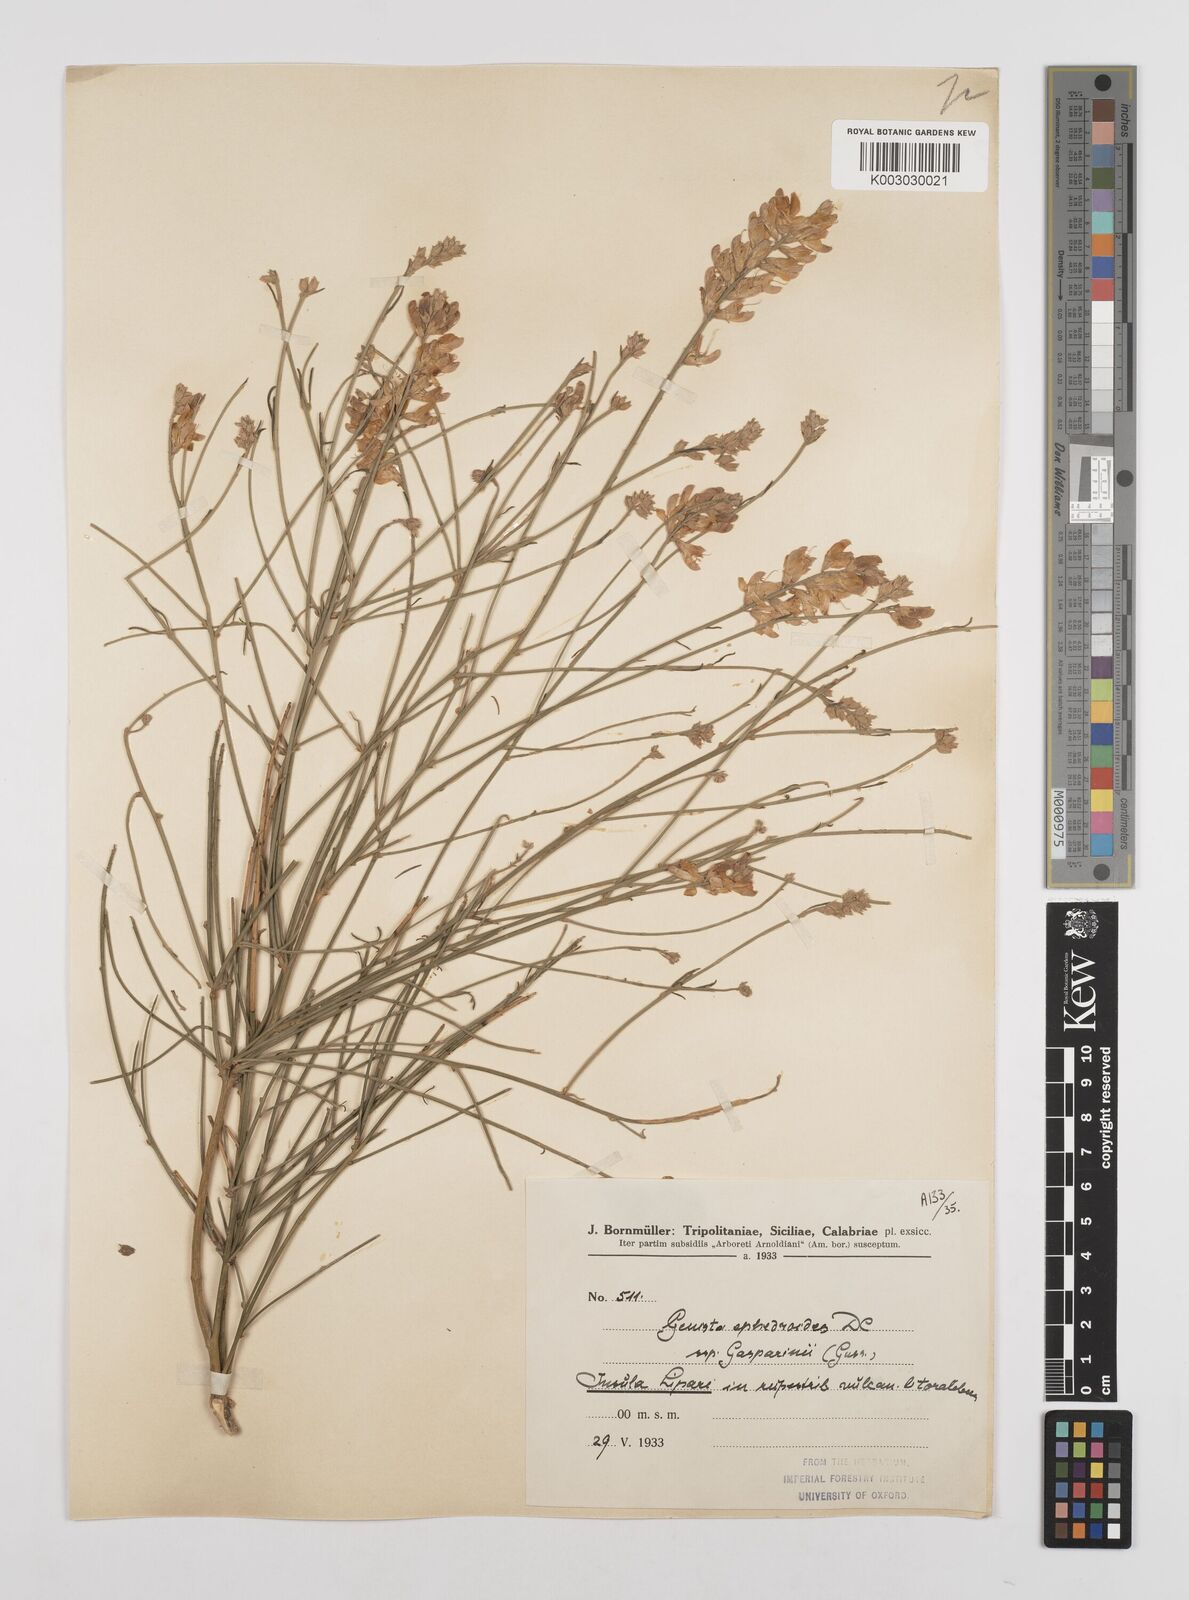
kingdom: Plantae
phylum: Tracheophyta
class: Magnoliopsida
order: Fabales
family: Fabaceae
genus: Genista
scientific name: Genista ephedroides
